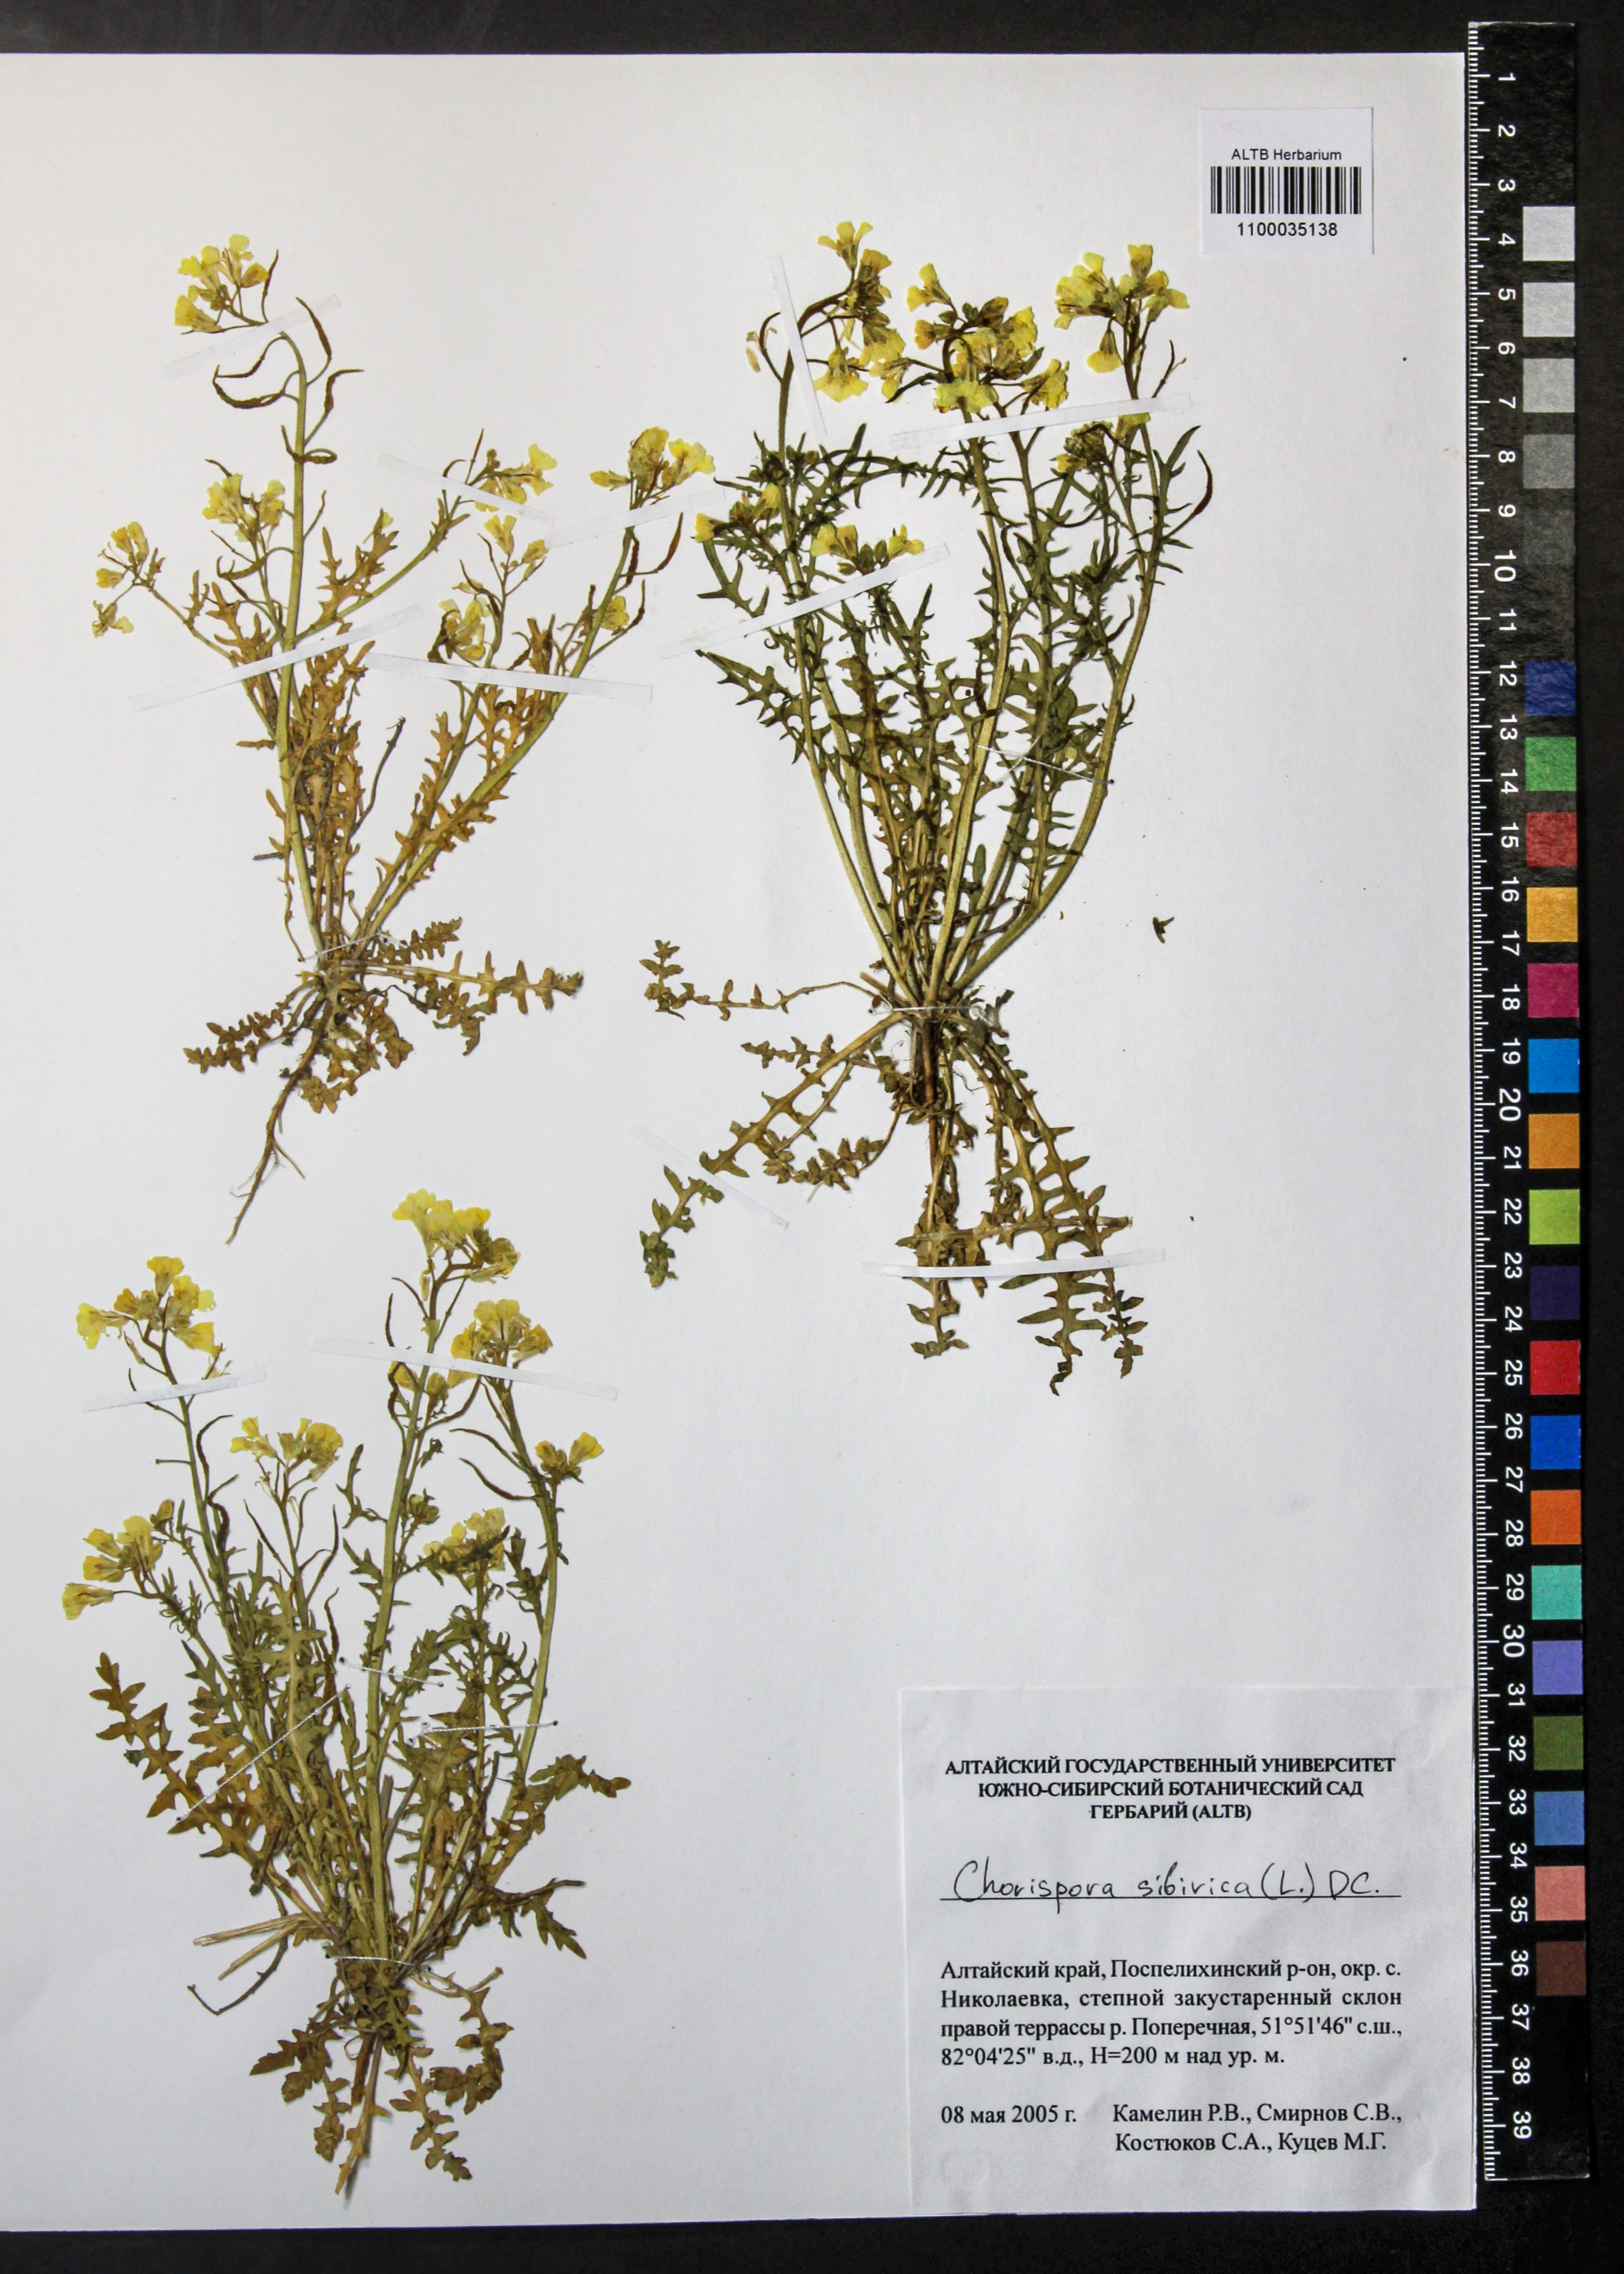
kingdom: Plantae
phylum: Tracheophyta
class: Magnoliopsida
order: Brassicales
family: Brassicaceae
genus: Chorispora
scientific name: Chorispora sibirica
